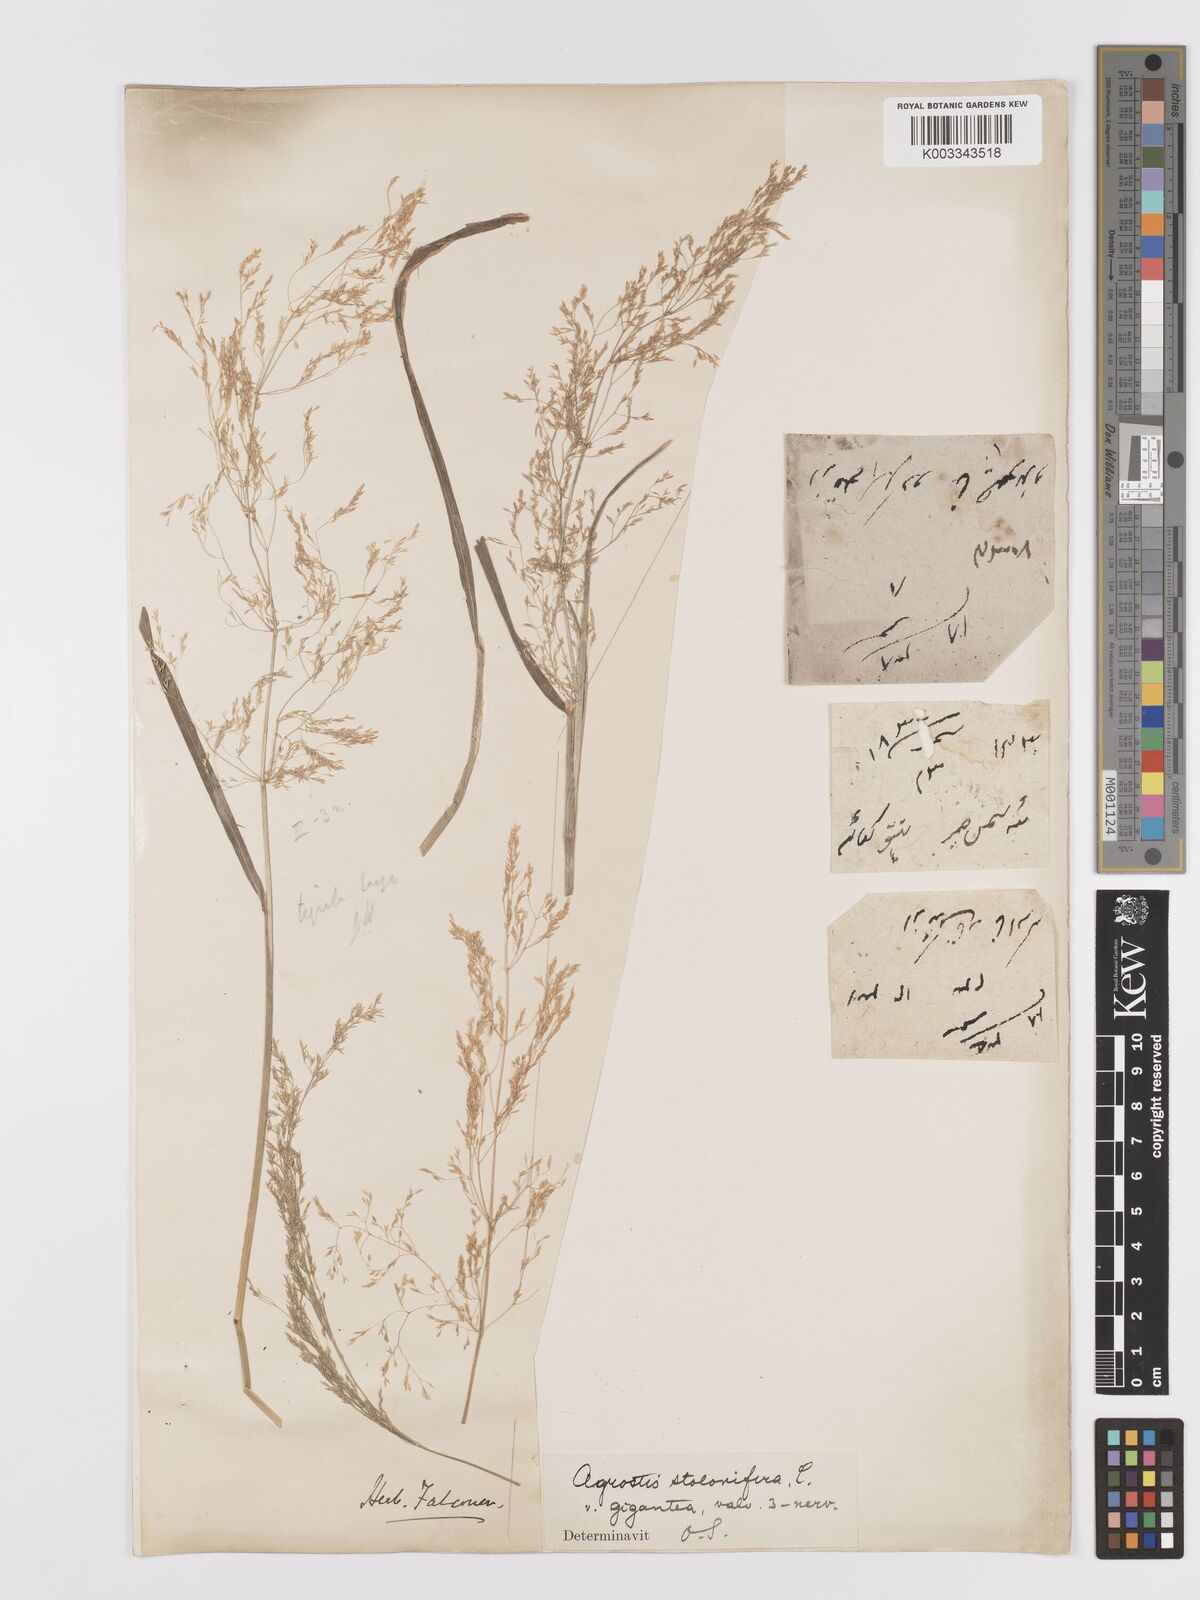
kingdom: Plantae
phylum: Tracheophyta
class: Liliopsida
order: Poales
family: Poaceae
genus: Agrostis
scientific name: Agrostis gigantea
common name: Black bent
